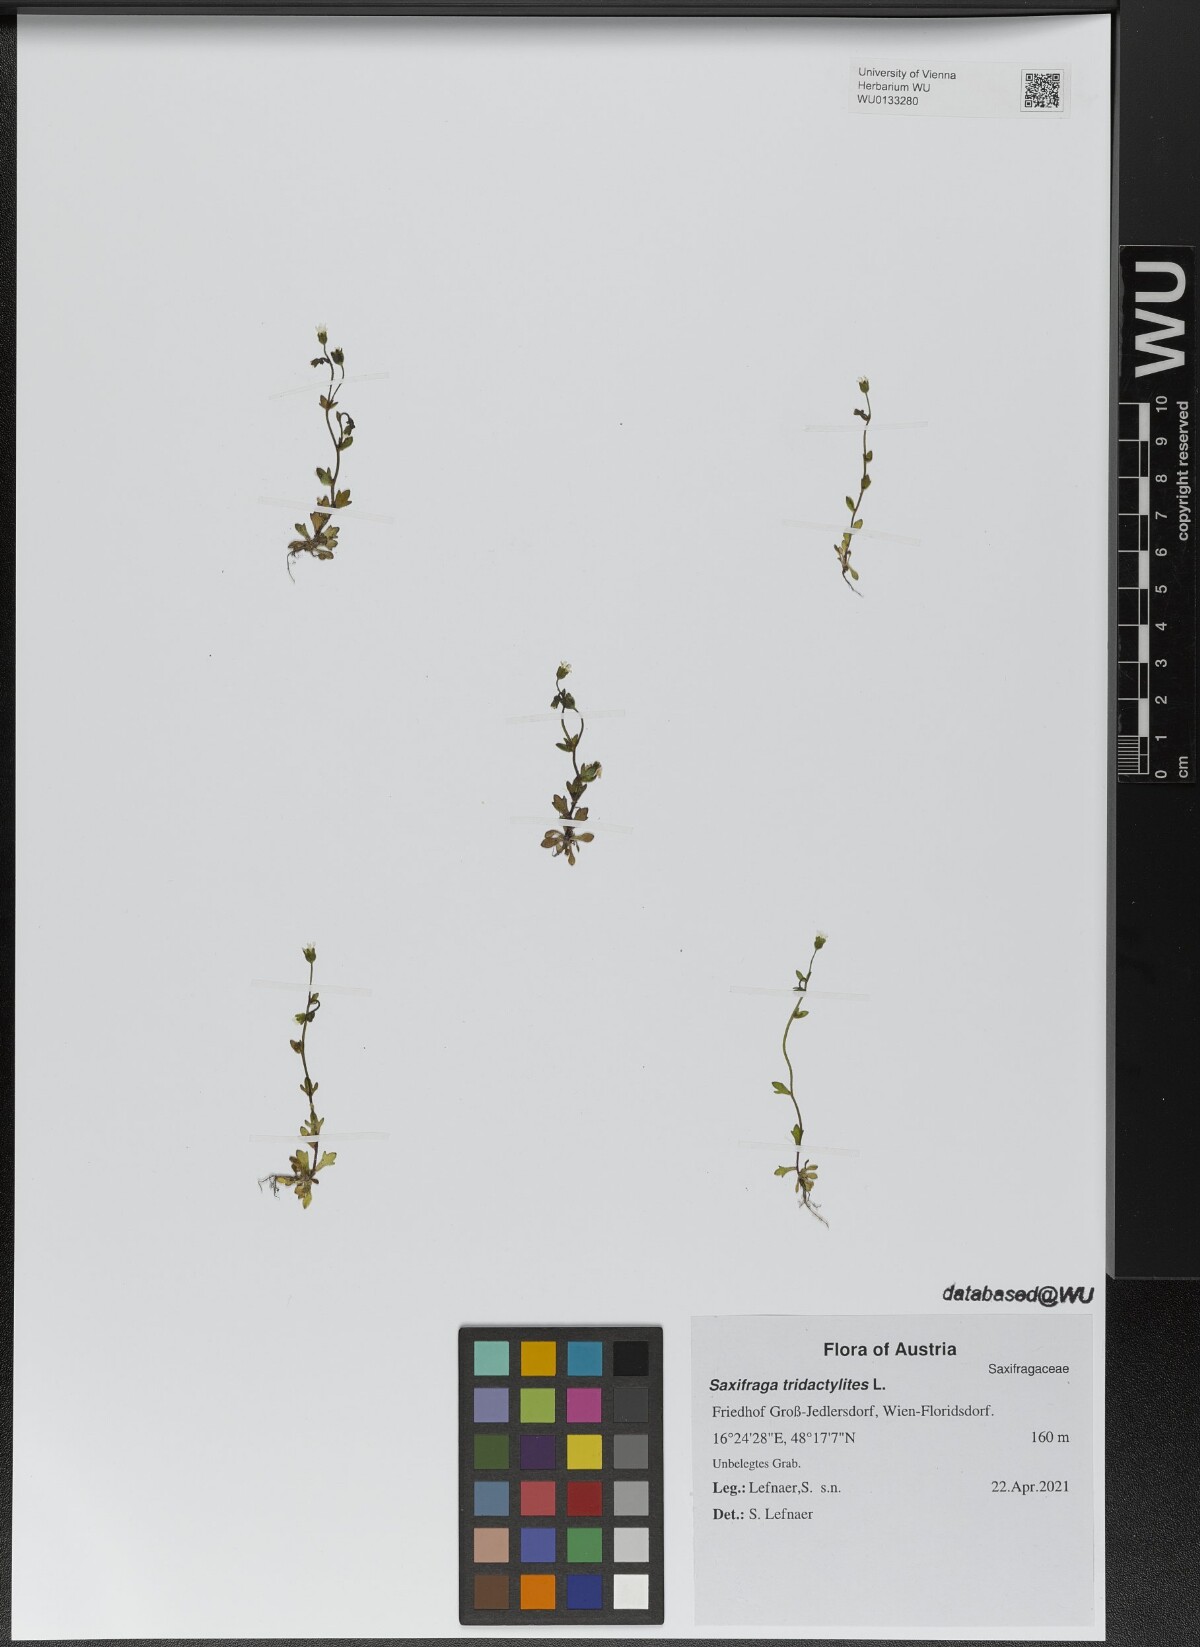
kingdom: Plantae
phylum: Tracheophyta
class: Magnoliopsida
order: Saxifragales
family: Saxifragaceae
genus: Saxifraga
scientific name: Saxifraga tridactylites
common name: Rue-leaved saxifrage
